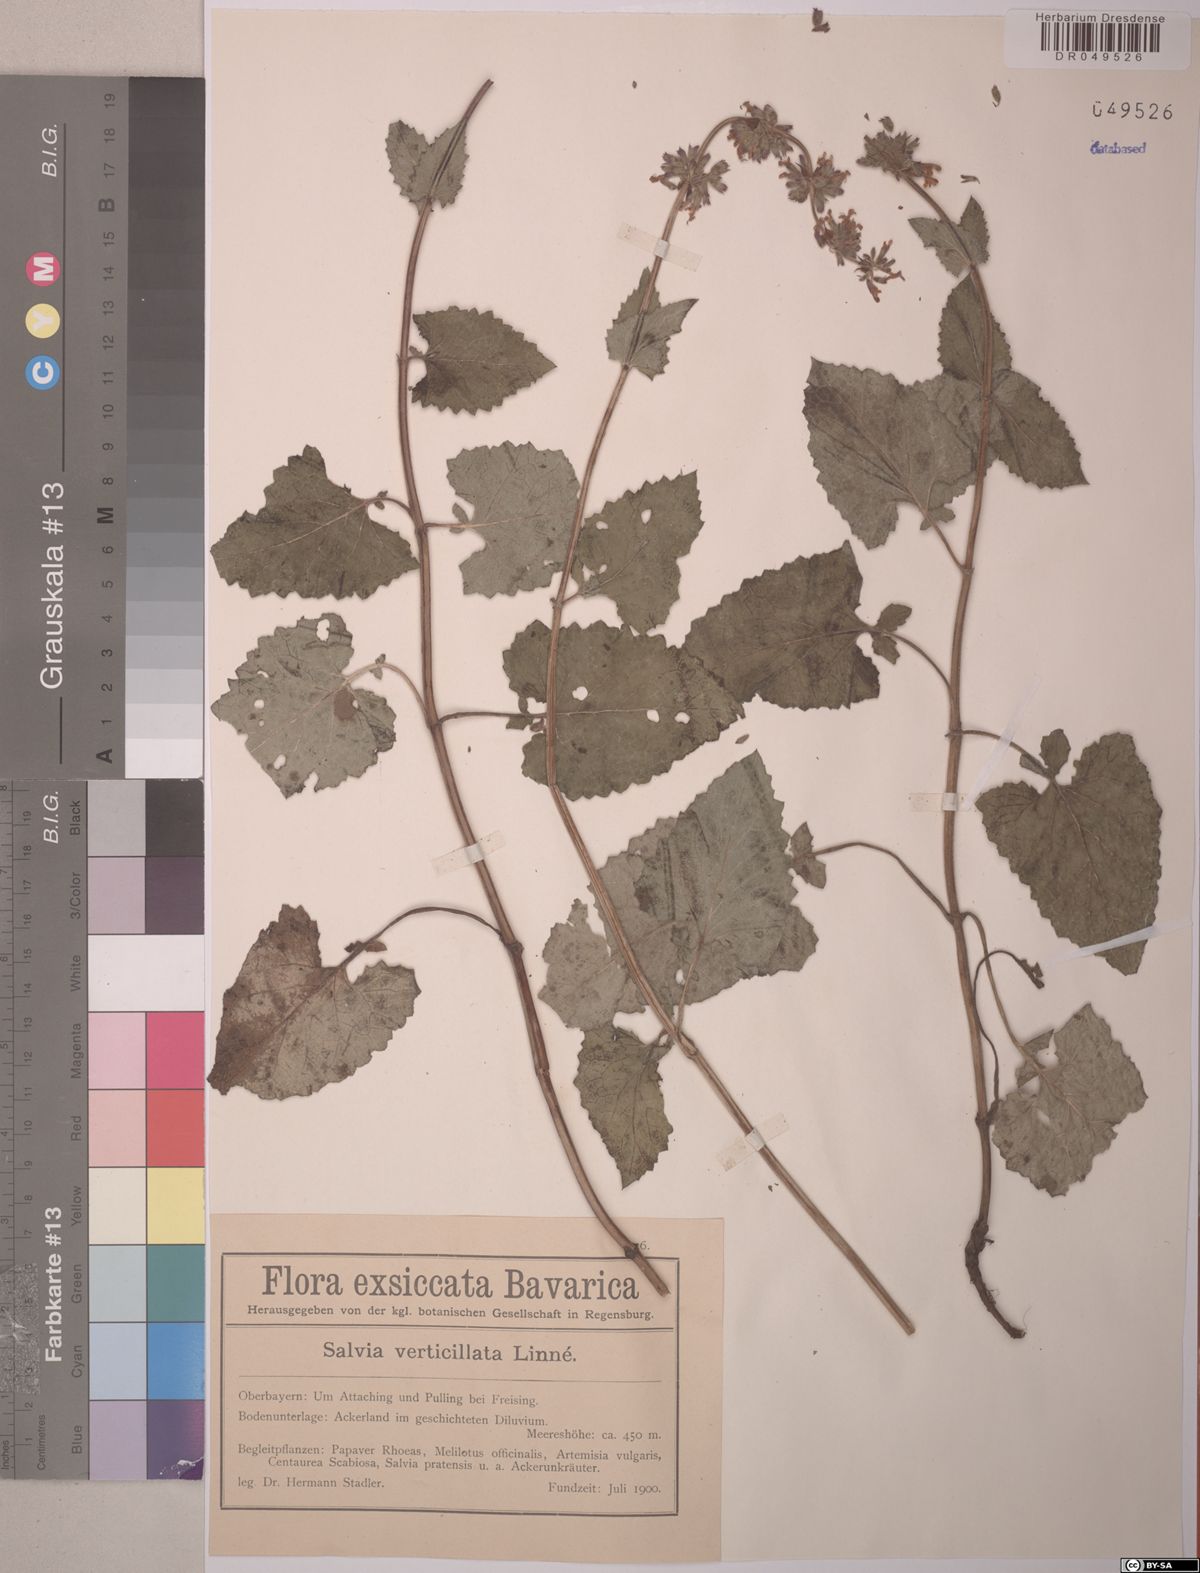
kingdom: Plantae
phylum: Tracheophyta
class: Magnoliopsida
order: Lamiales
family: Lamiaceae
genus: Salvia
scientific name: Salvia verticillata
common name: Whorled clary
